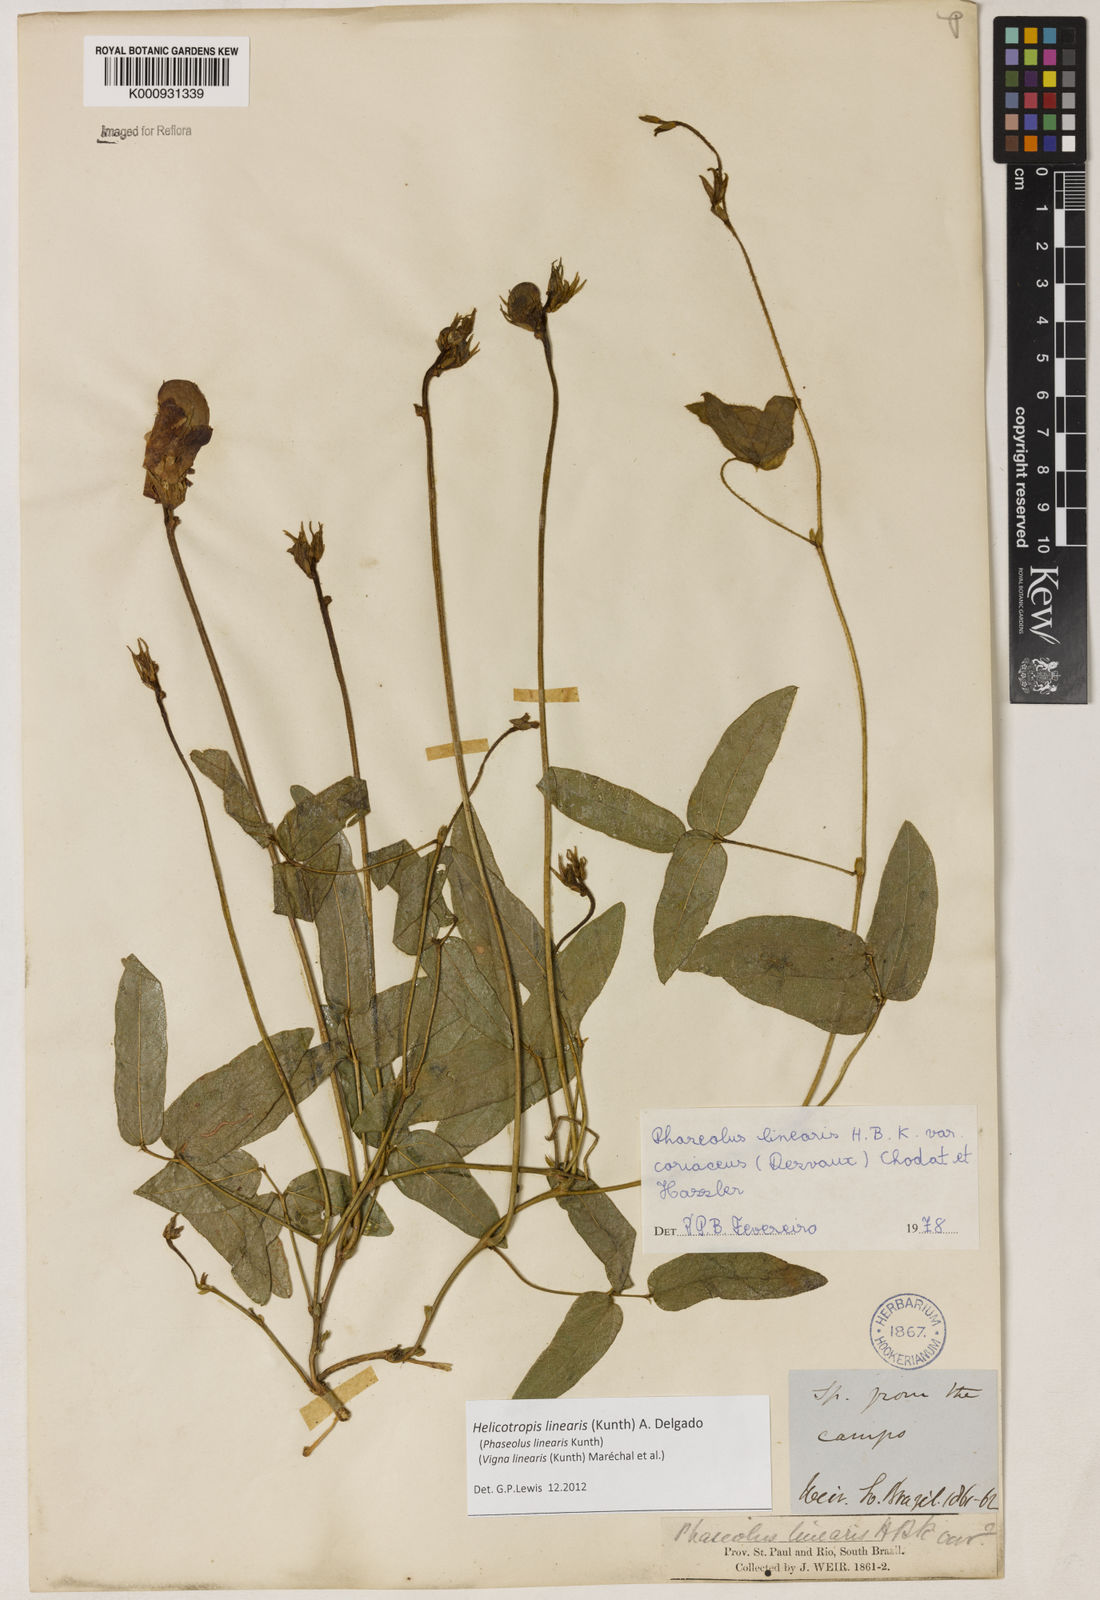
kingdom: Plantae
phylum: Tracheophyta
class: Magnoliopsida
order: Fabales
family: Fabaceae
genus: Helicotropis
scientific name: Helicotropis linearis
